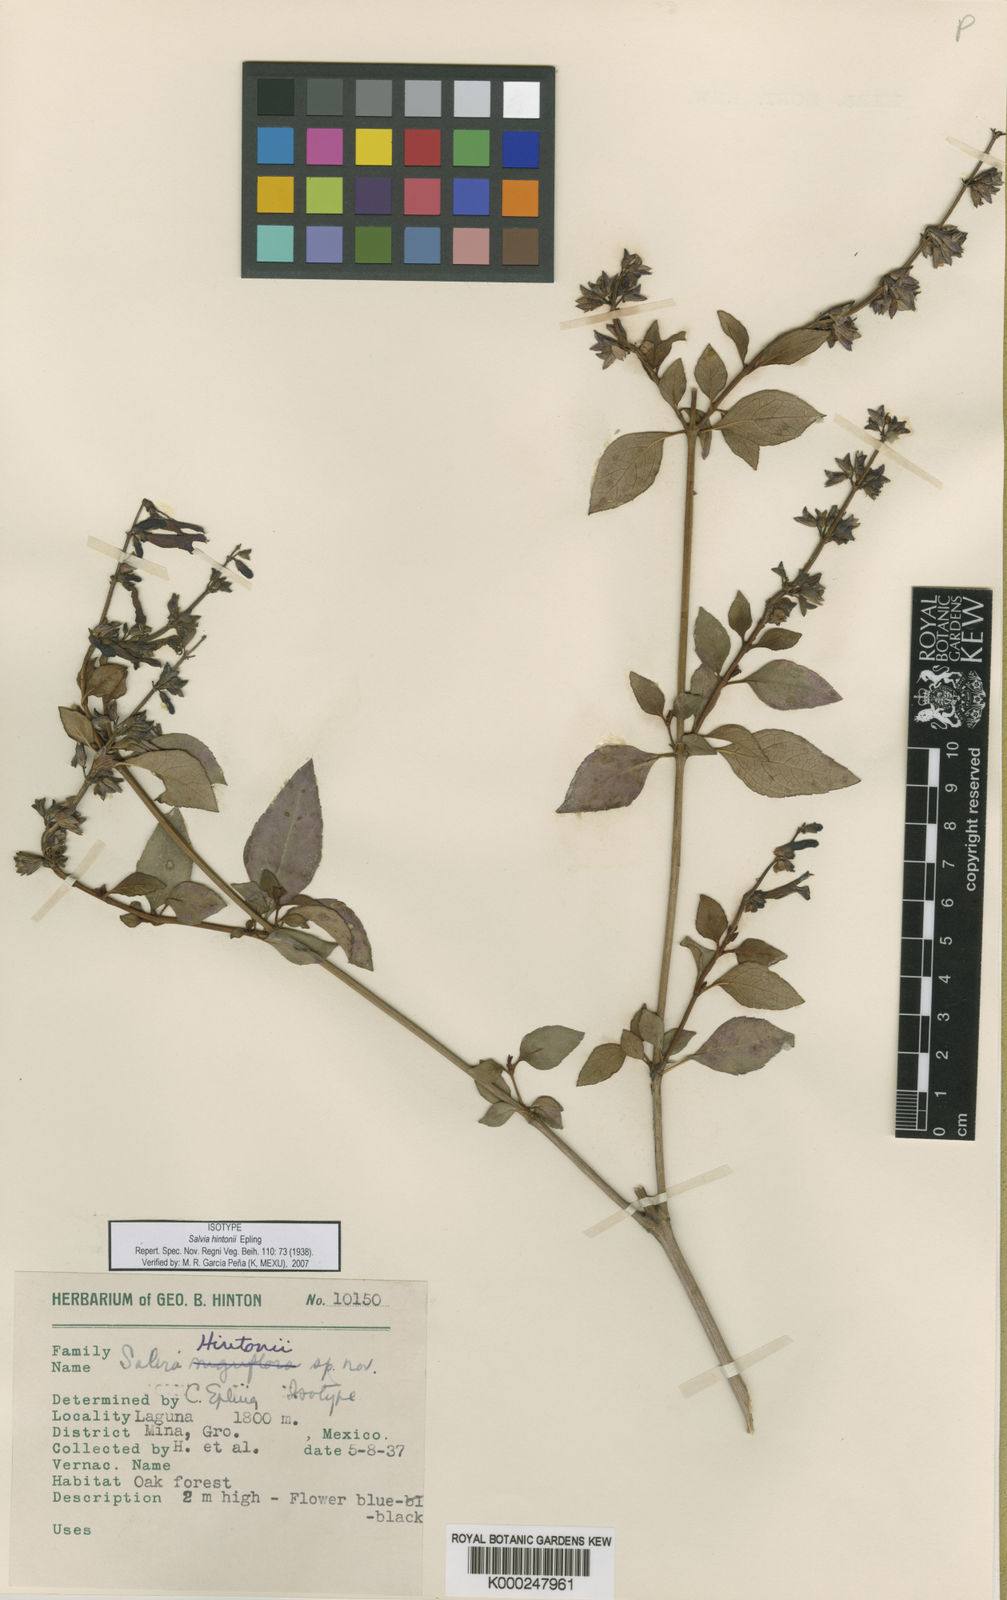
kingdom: Plantae
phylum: Tracheophyta
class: Magnoliopsida
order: Lamiales
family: Lamiaceae
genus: Salvia
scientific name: Salvia hintonii
